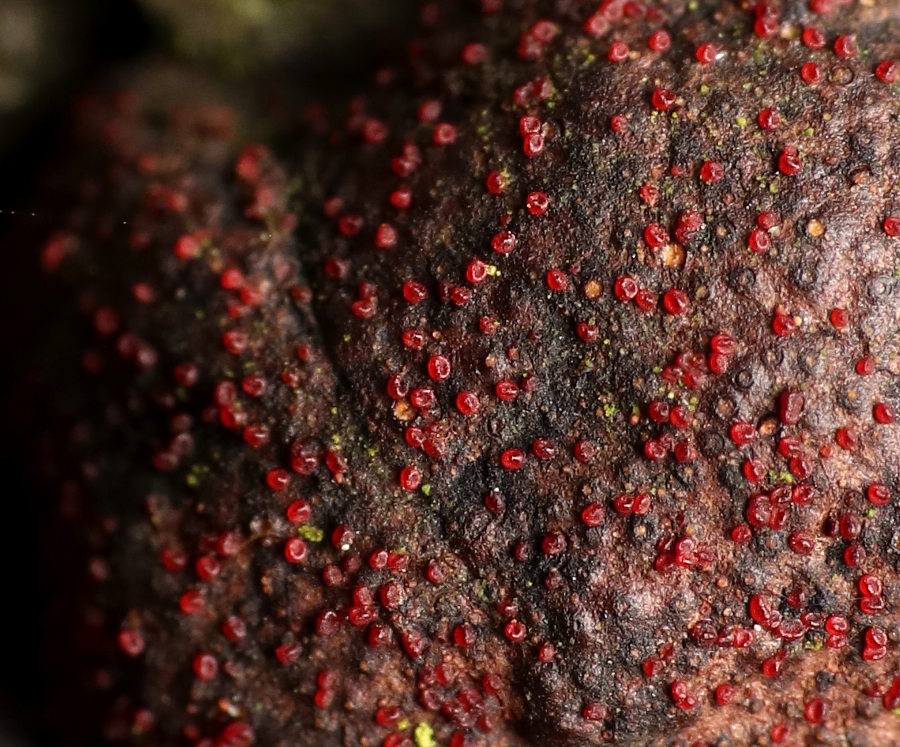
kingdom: Fungi
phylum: Ascomycota
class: Sordariomycetes
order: Hypocreales
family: Nectriaceae
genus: Cosmospora
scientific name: Cosmospora arxii
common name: kuljordbær-cinnobersvamp
